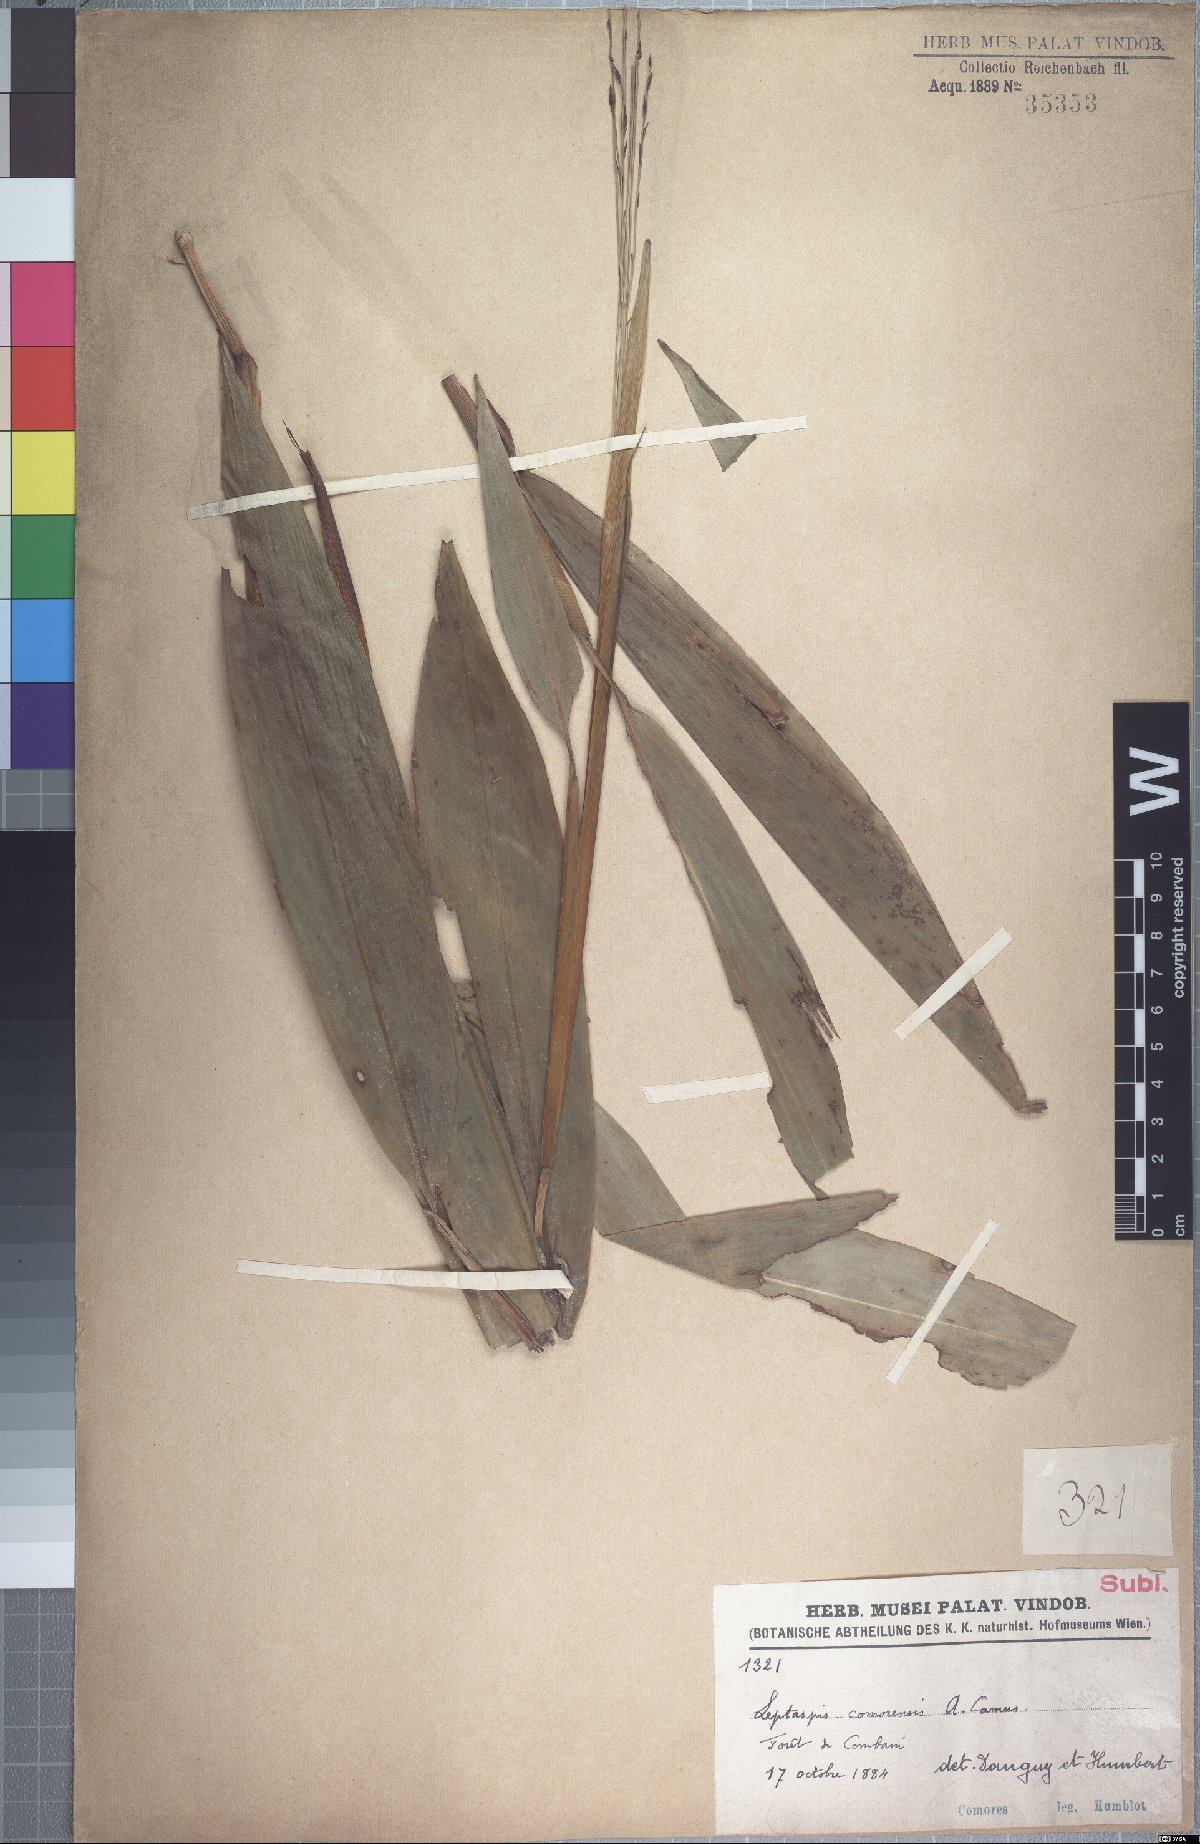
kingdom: Plantae
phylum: Tracheophyta
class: Liliopsida
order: Poales
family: Poaceae
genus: Leptaspis
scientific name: Leptaspis zeylanica
